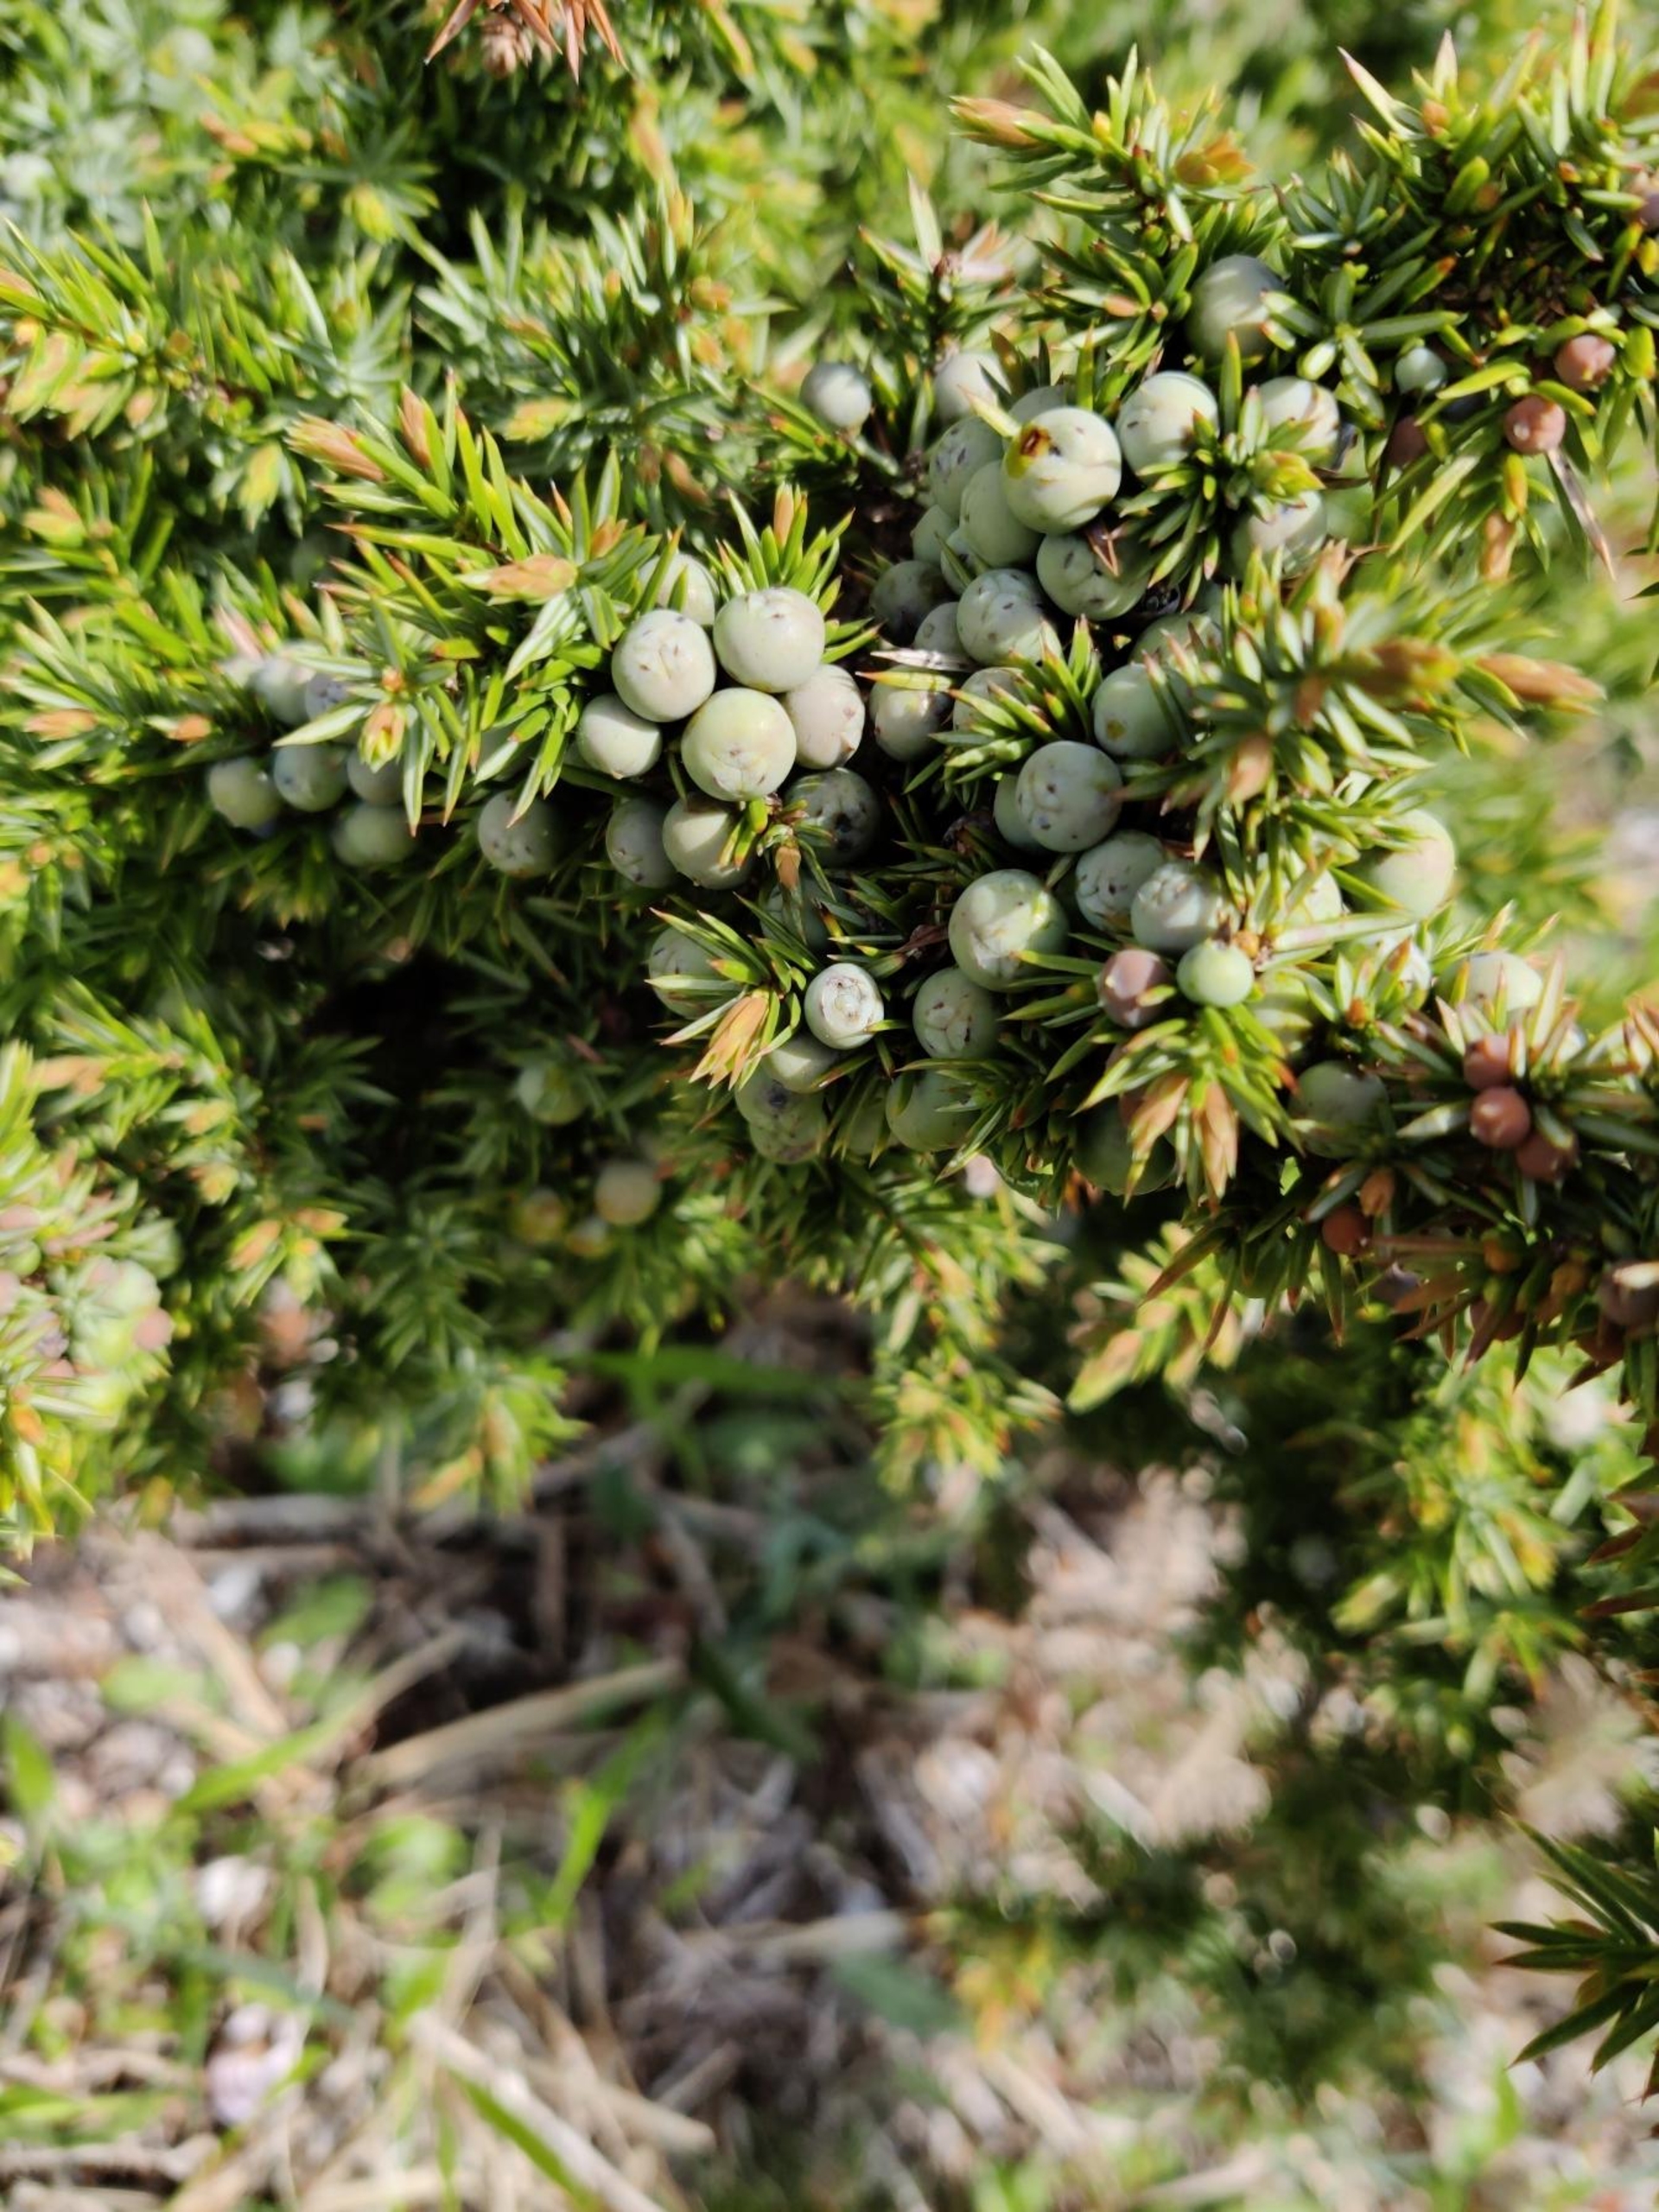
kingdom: Plantae
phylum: Tracheophyta
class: Pinopsida
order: Pinales
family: Cupressaceae
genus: Juniperus
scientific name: Juniperus communis
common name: Almindelig ene
